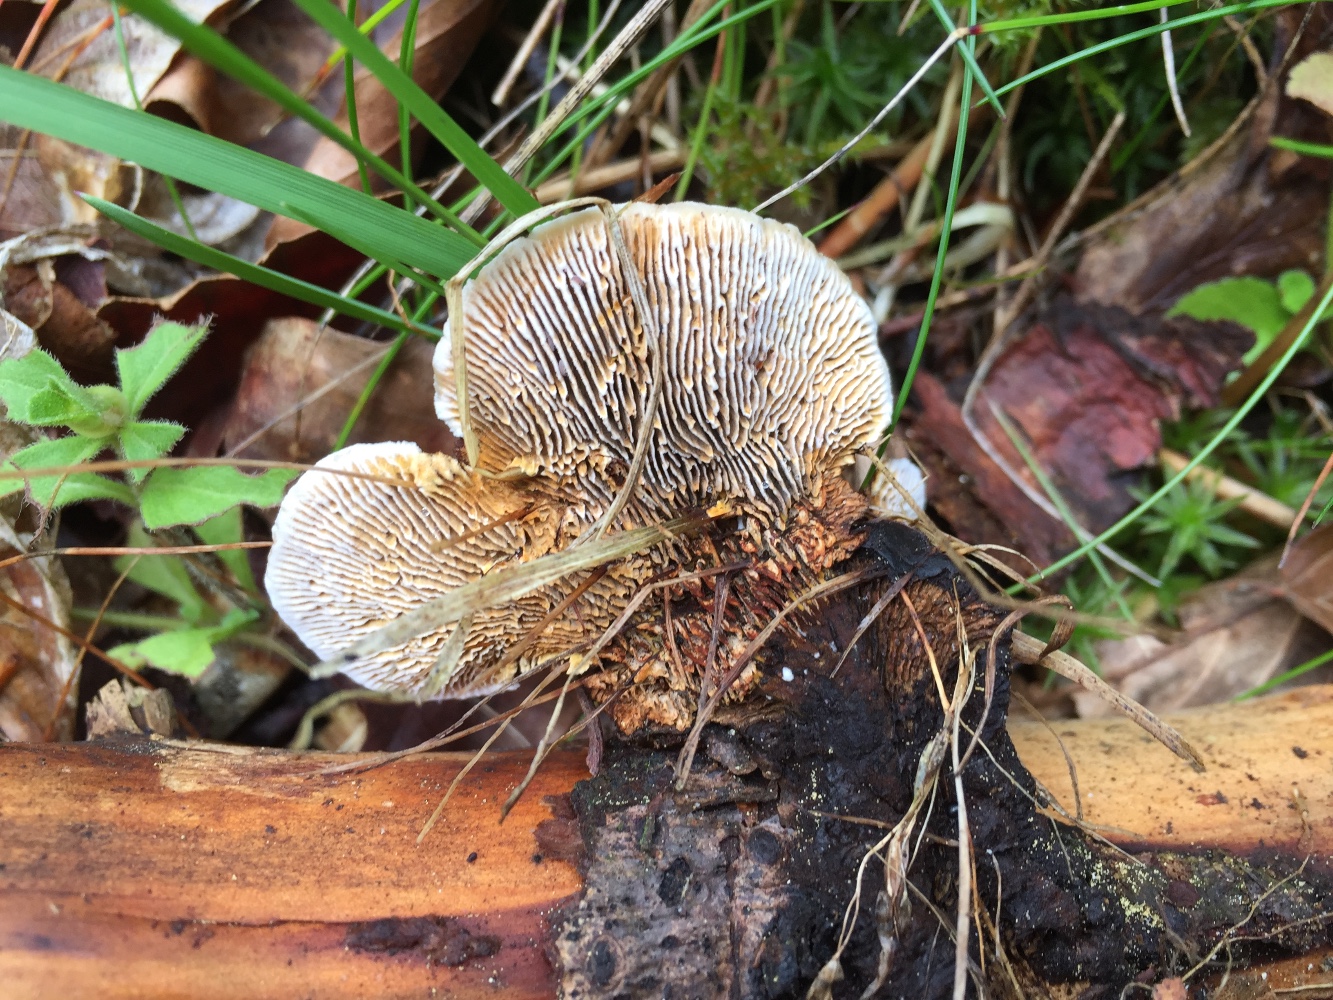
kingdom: Fungi
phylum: Basidiomycota
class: Agaricomycetes
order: Gloeophyllales
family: Gloeophyllaceae
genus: Gloeophyllum
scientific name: Gloeophyllum sepiarium
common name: fyrre-korkhat
